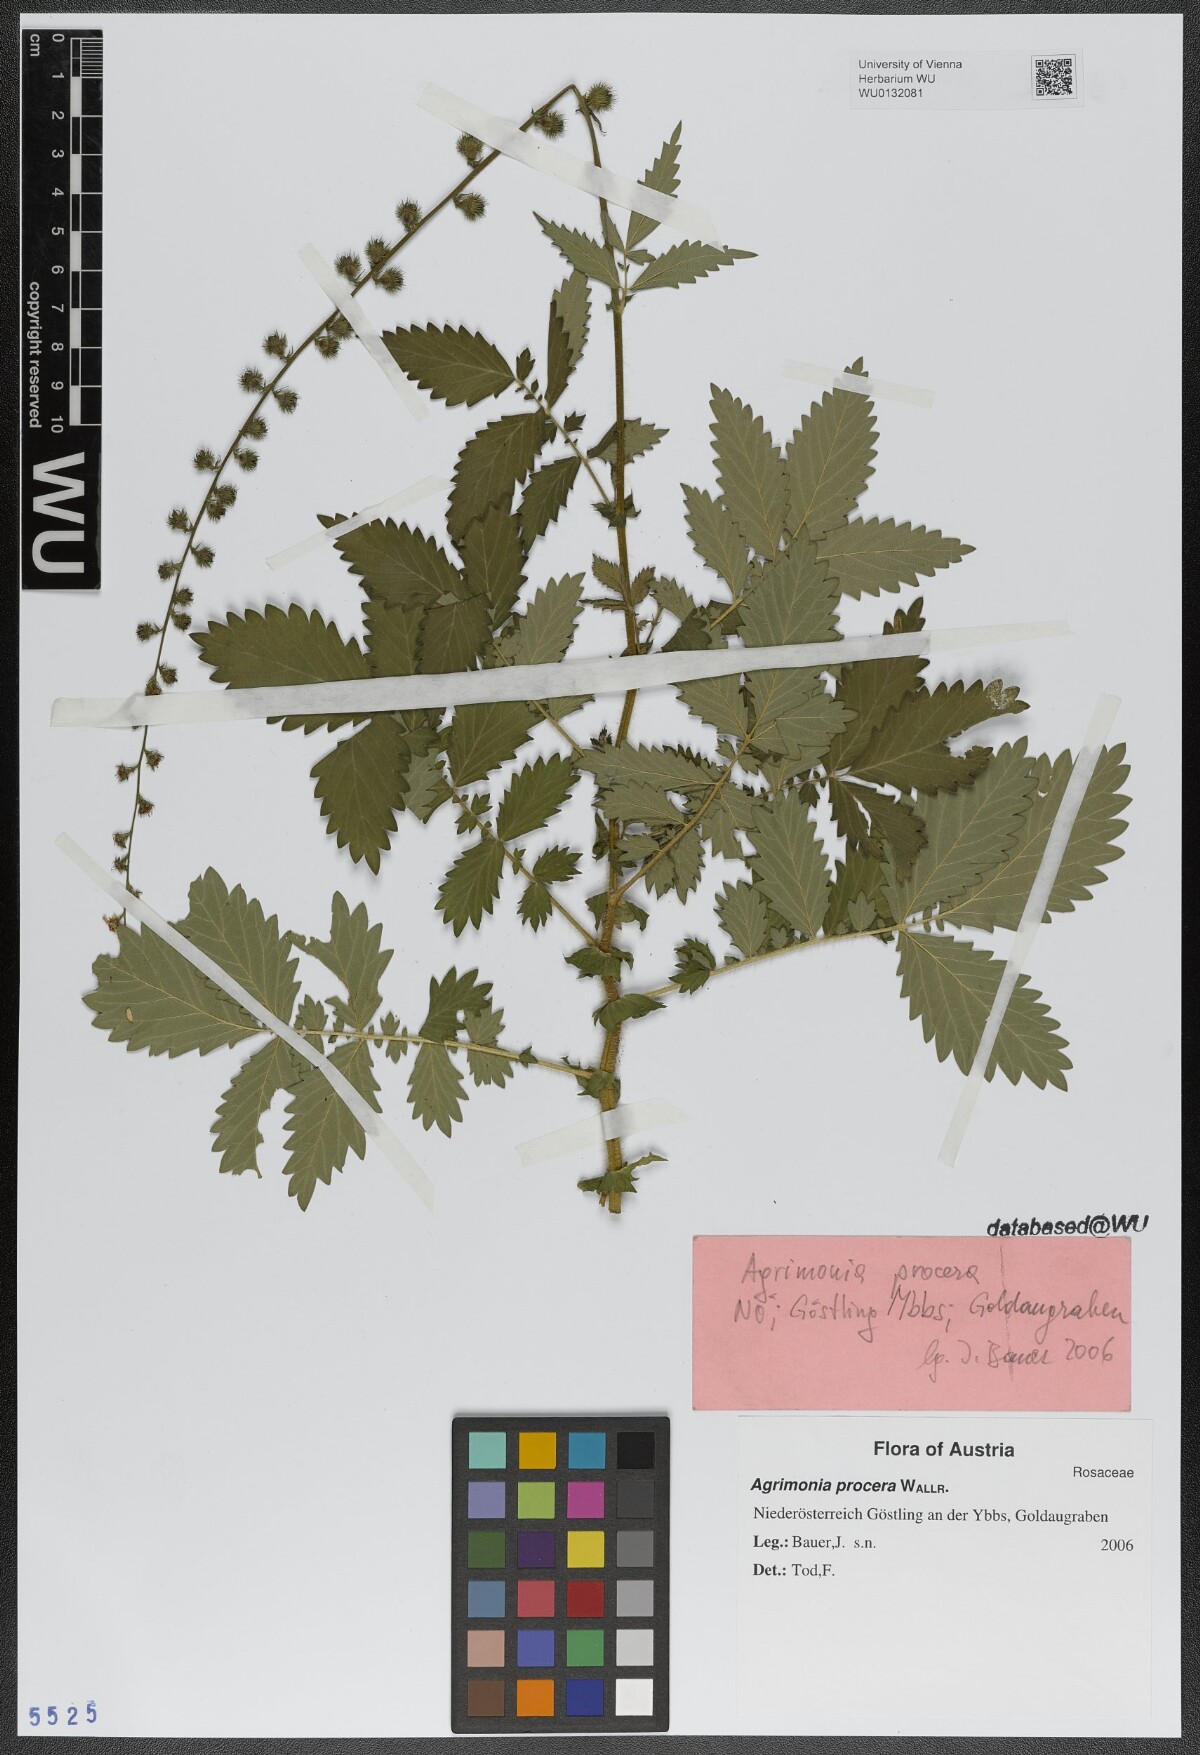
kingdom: Plantae
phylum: Tracheophyta
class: Magnoliopsida
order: Rosales
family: Rosaceae
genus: Agrimonia
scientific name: Agrimonia procera
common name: Fragrant agrimony
